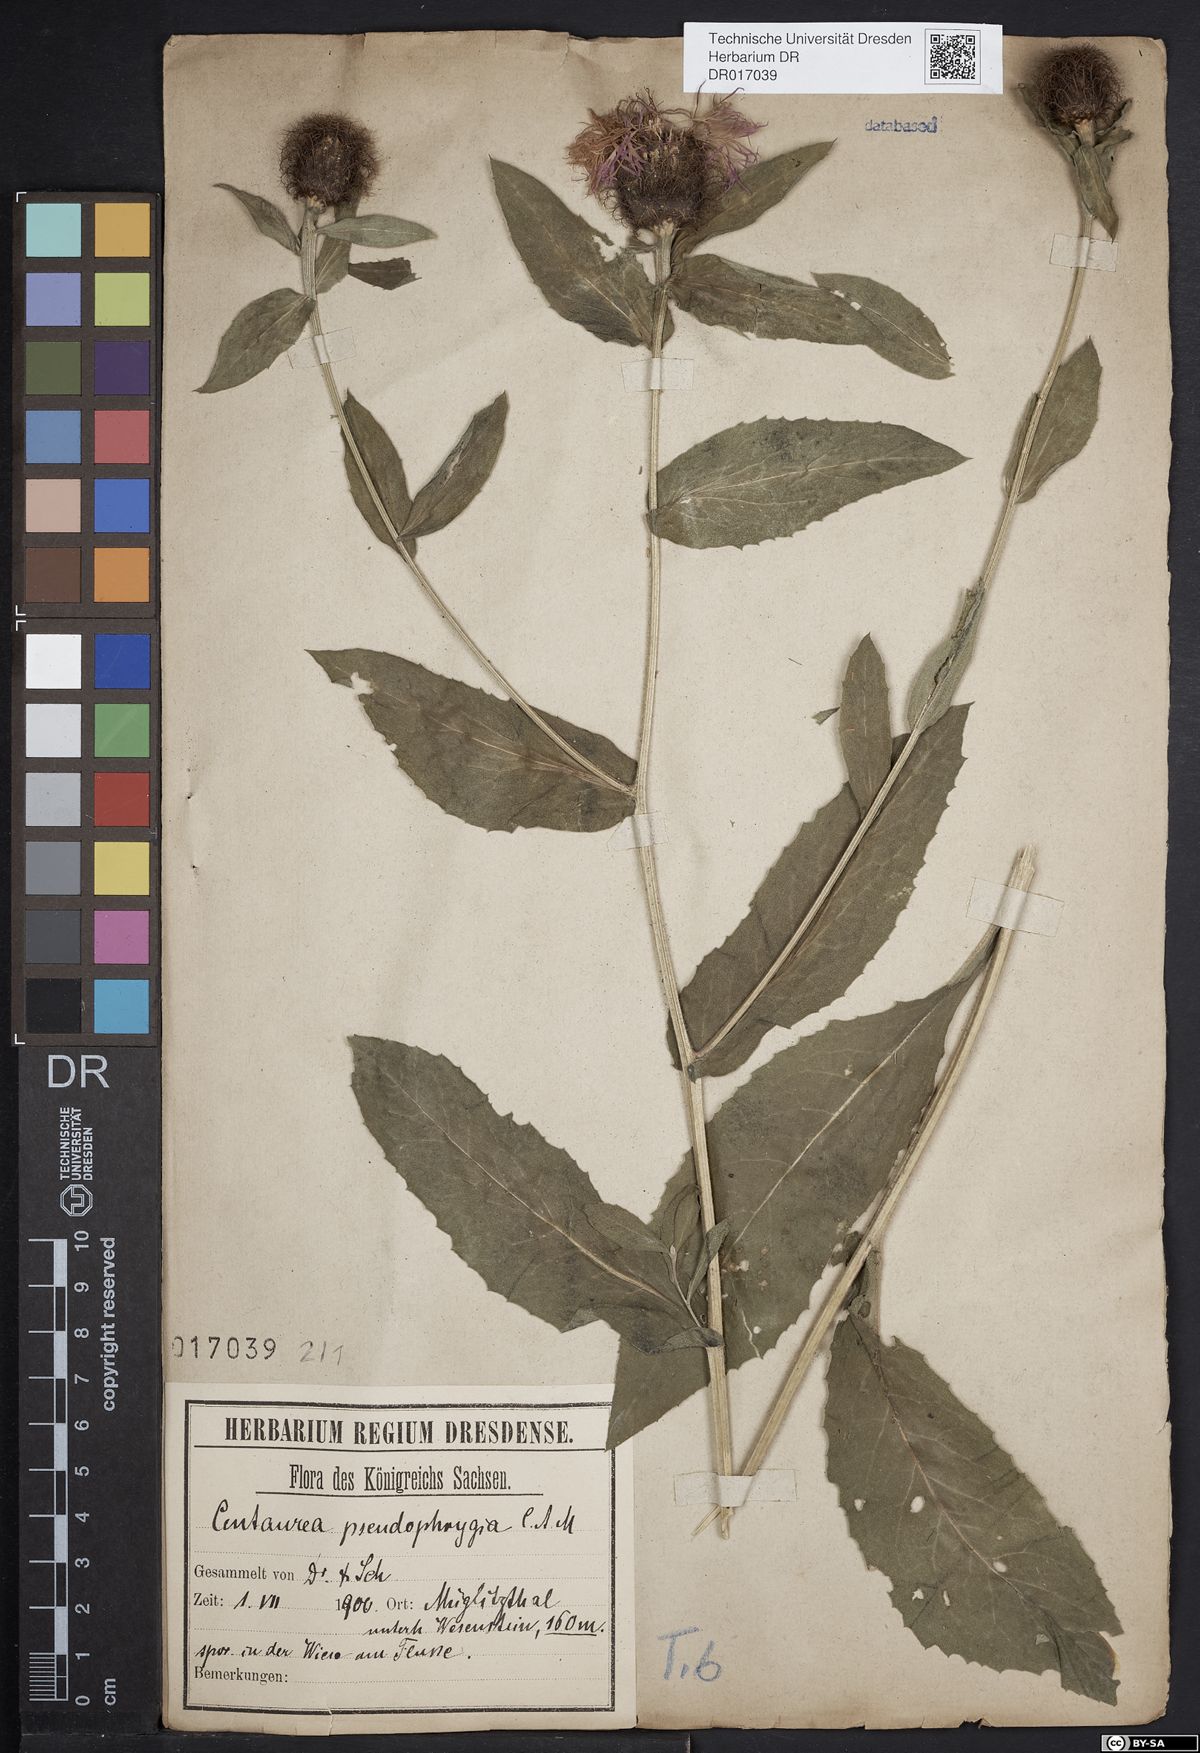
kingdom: Plantae
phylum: Tracheophyta
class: Magnoliopsida
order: Asterales
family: Asteraceae
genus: Centaurea
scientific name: Centaurea pseudophrygia
